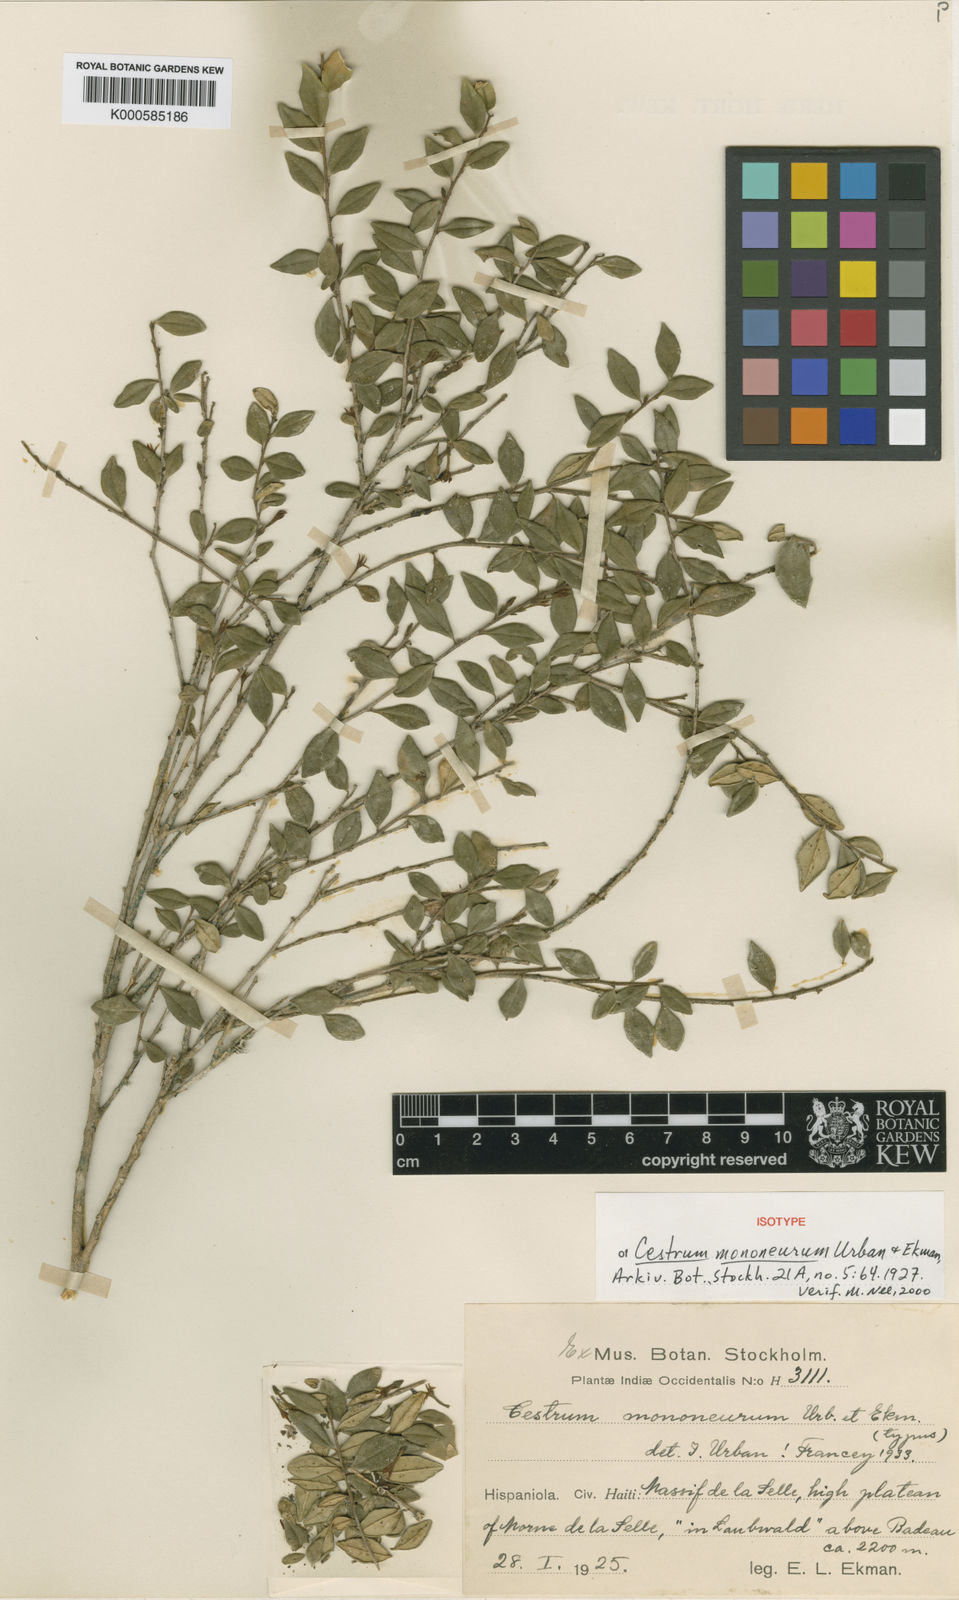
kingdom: Plantae
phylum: Tracheophyta
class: Magnoliopsida
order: Solanales
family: Solanaceae
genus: Cestrum
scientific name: Cestrum mononeurum
